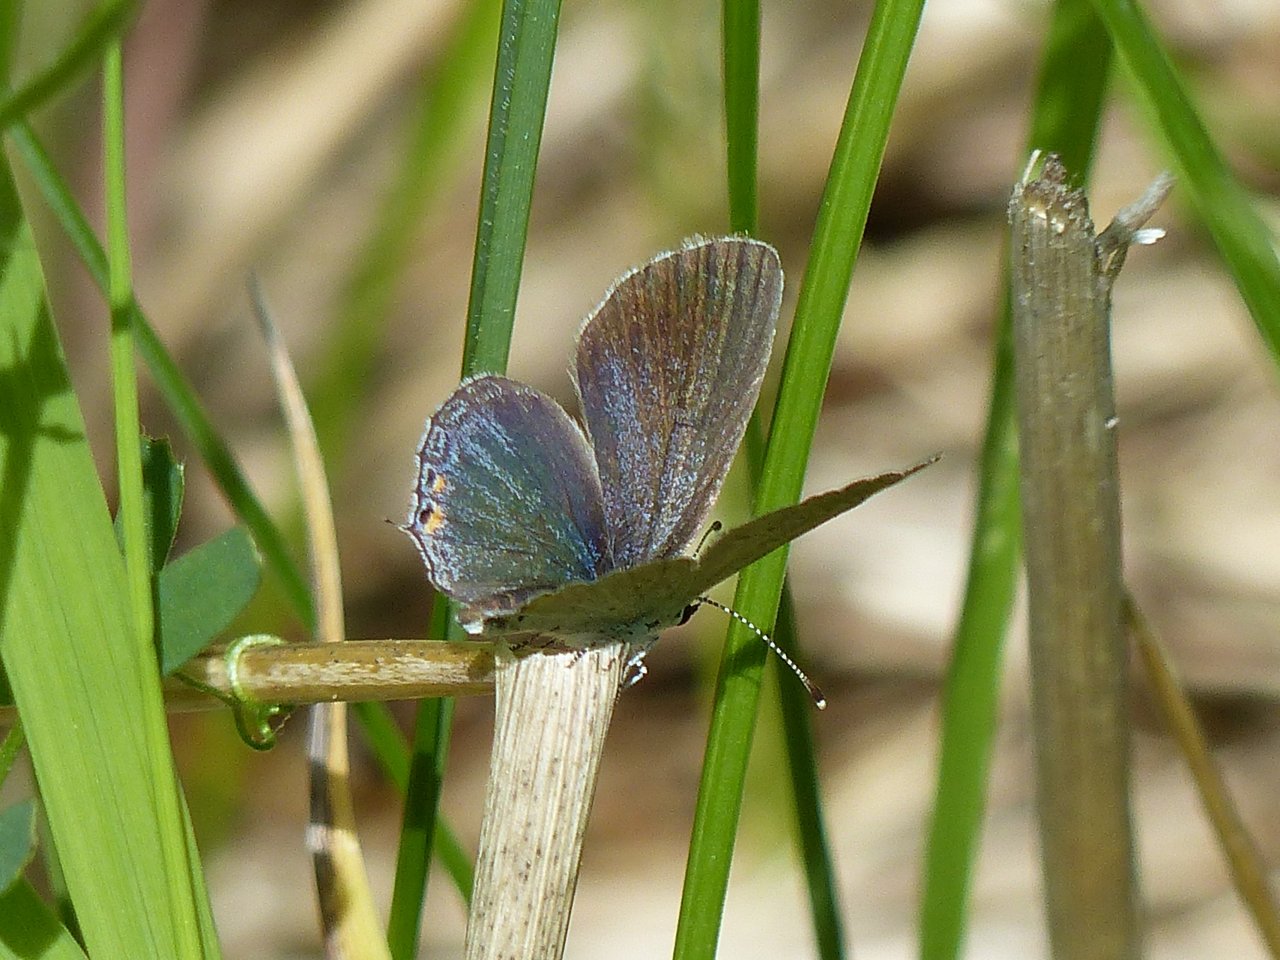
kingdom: Animalia
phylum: Arthropoda
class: Insecta
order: Lepidoptera
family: Lycaenidae
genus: Elkalyce
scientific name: Elkalyce comyntas
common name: Eastern Tailed-Blue
